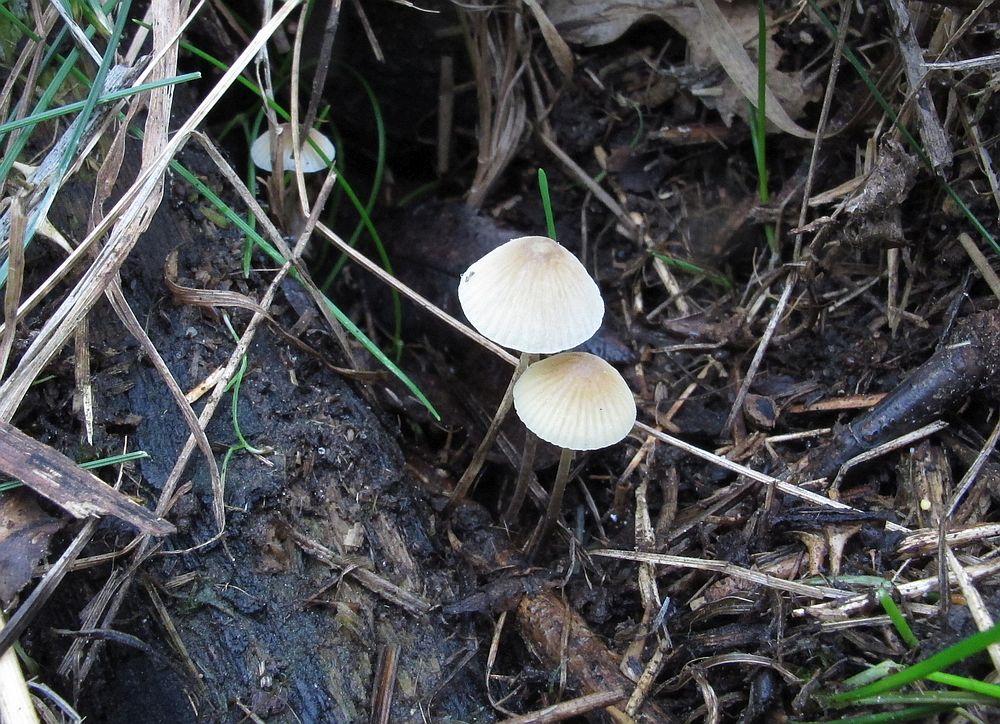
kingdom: Fungi
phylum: Basidiomycota
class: Agaricomycetes
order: Agaricales
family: Mycenaceae
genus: Mycena
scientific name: Mycena arcangeliana
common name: oliven-huesvamp
